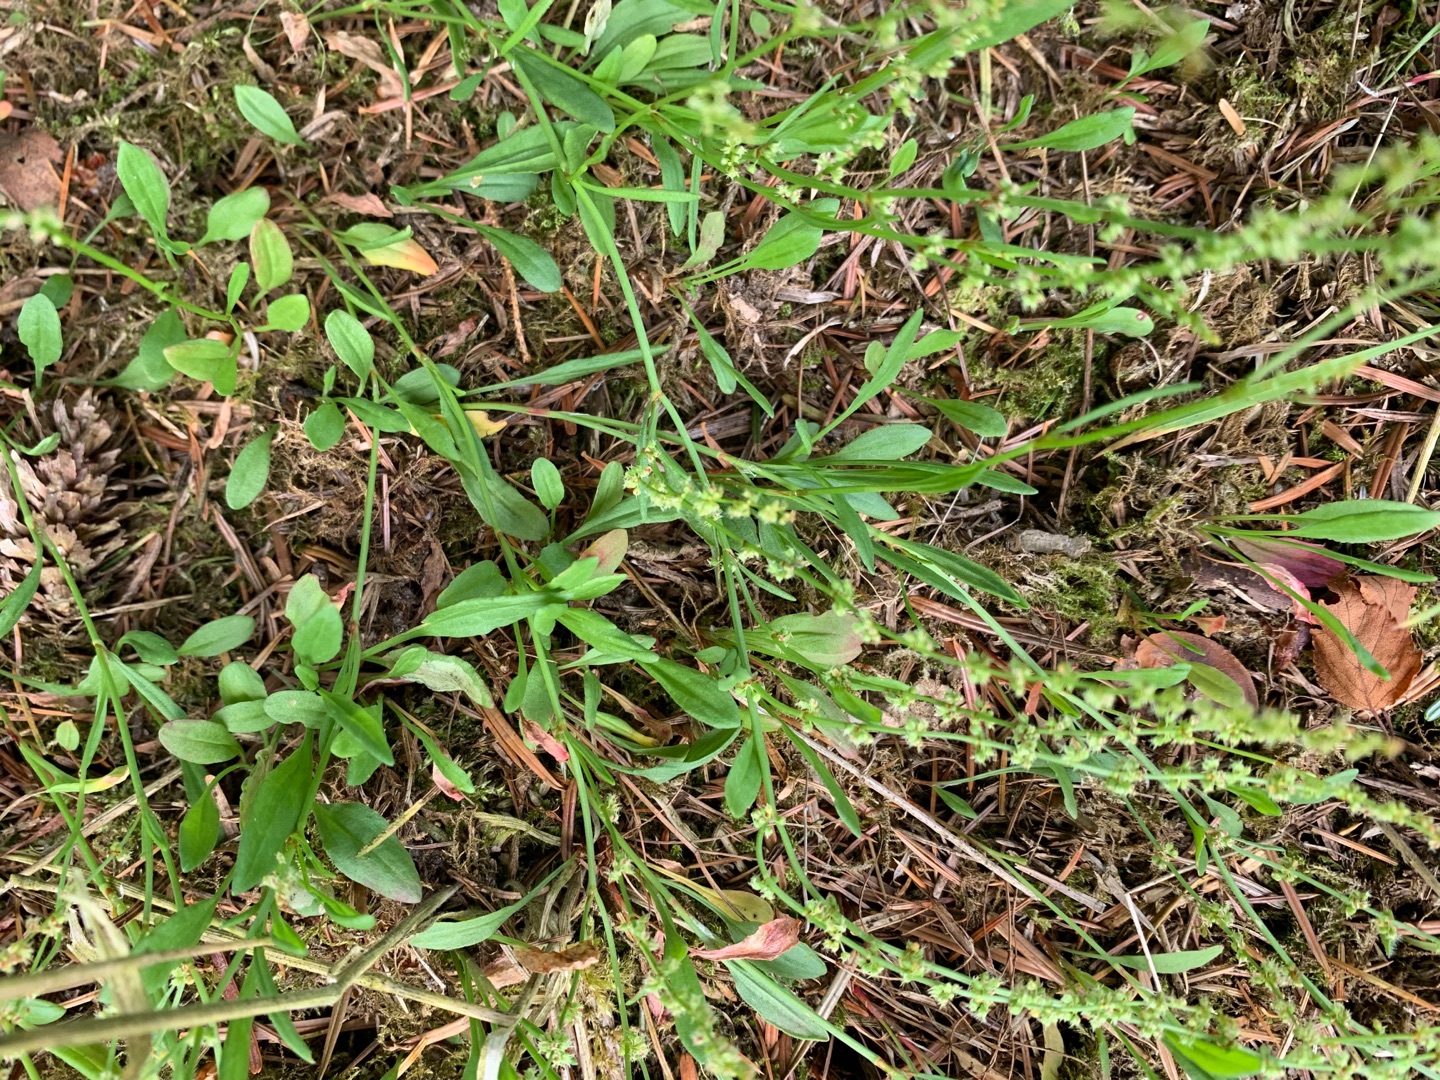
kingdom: Plantae
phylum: Tracheophyta
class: Magnoliopsida
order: Caryophyllales
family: Polygonaceae
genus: Rumex
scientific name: Rumex acetosella
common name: Rødknæ
